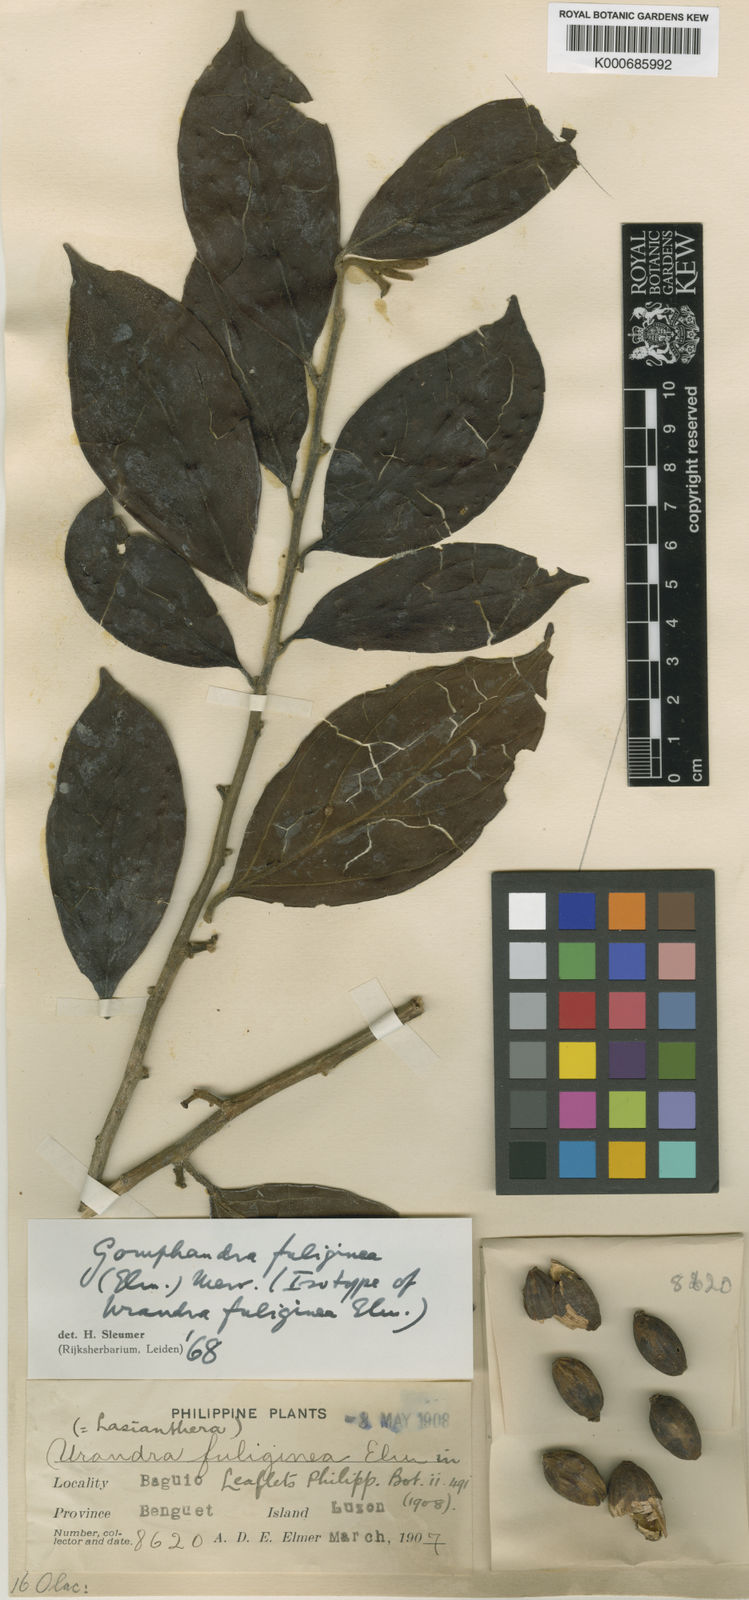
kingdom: Plantae
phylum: Tracheophyta
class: Magnoliopsida
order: Cardiopteridales
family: Stemonuraceae
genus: Gomphandra
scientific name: Gomphandra fuliginea
